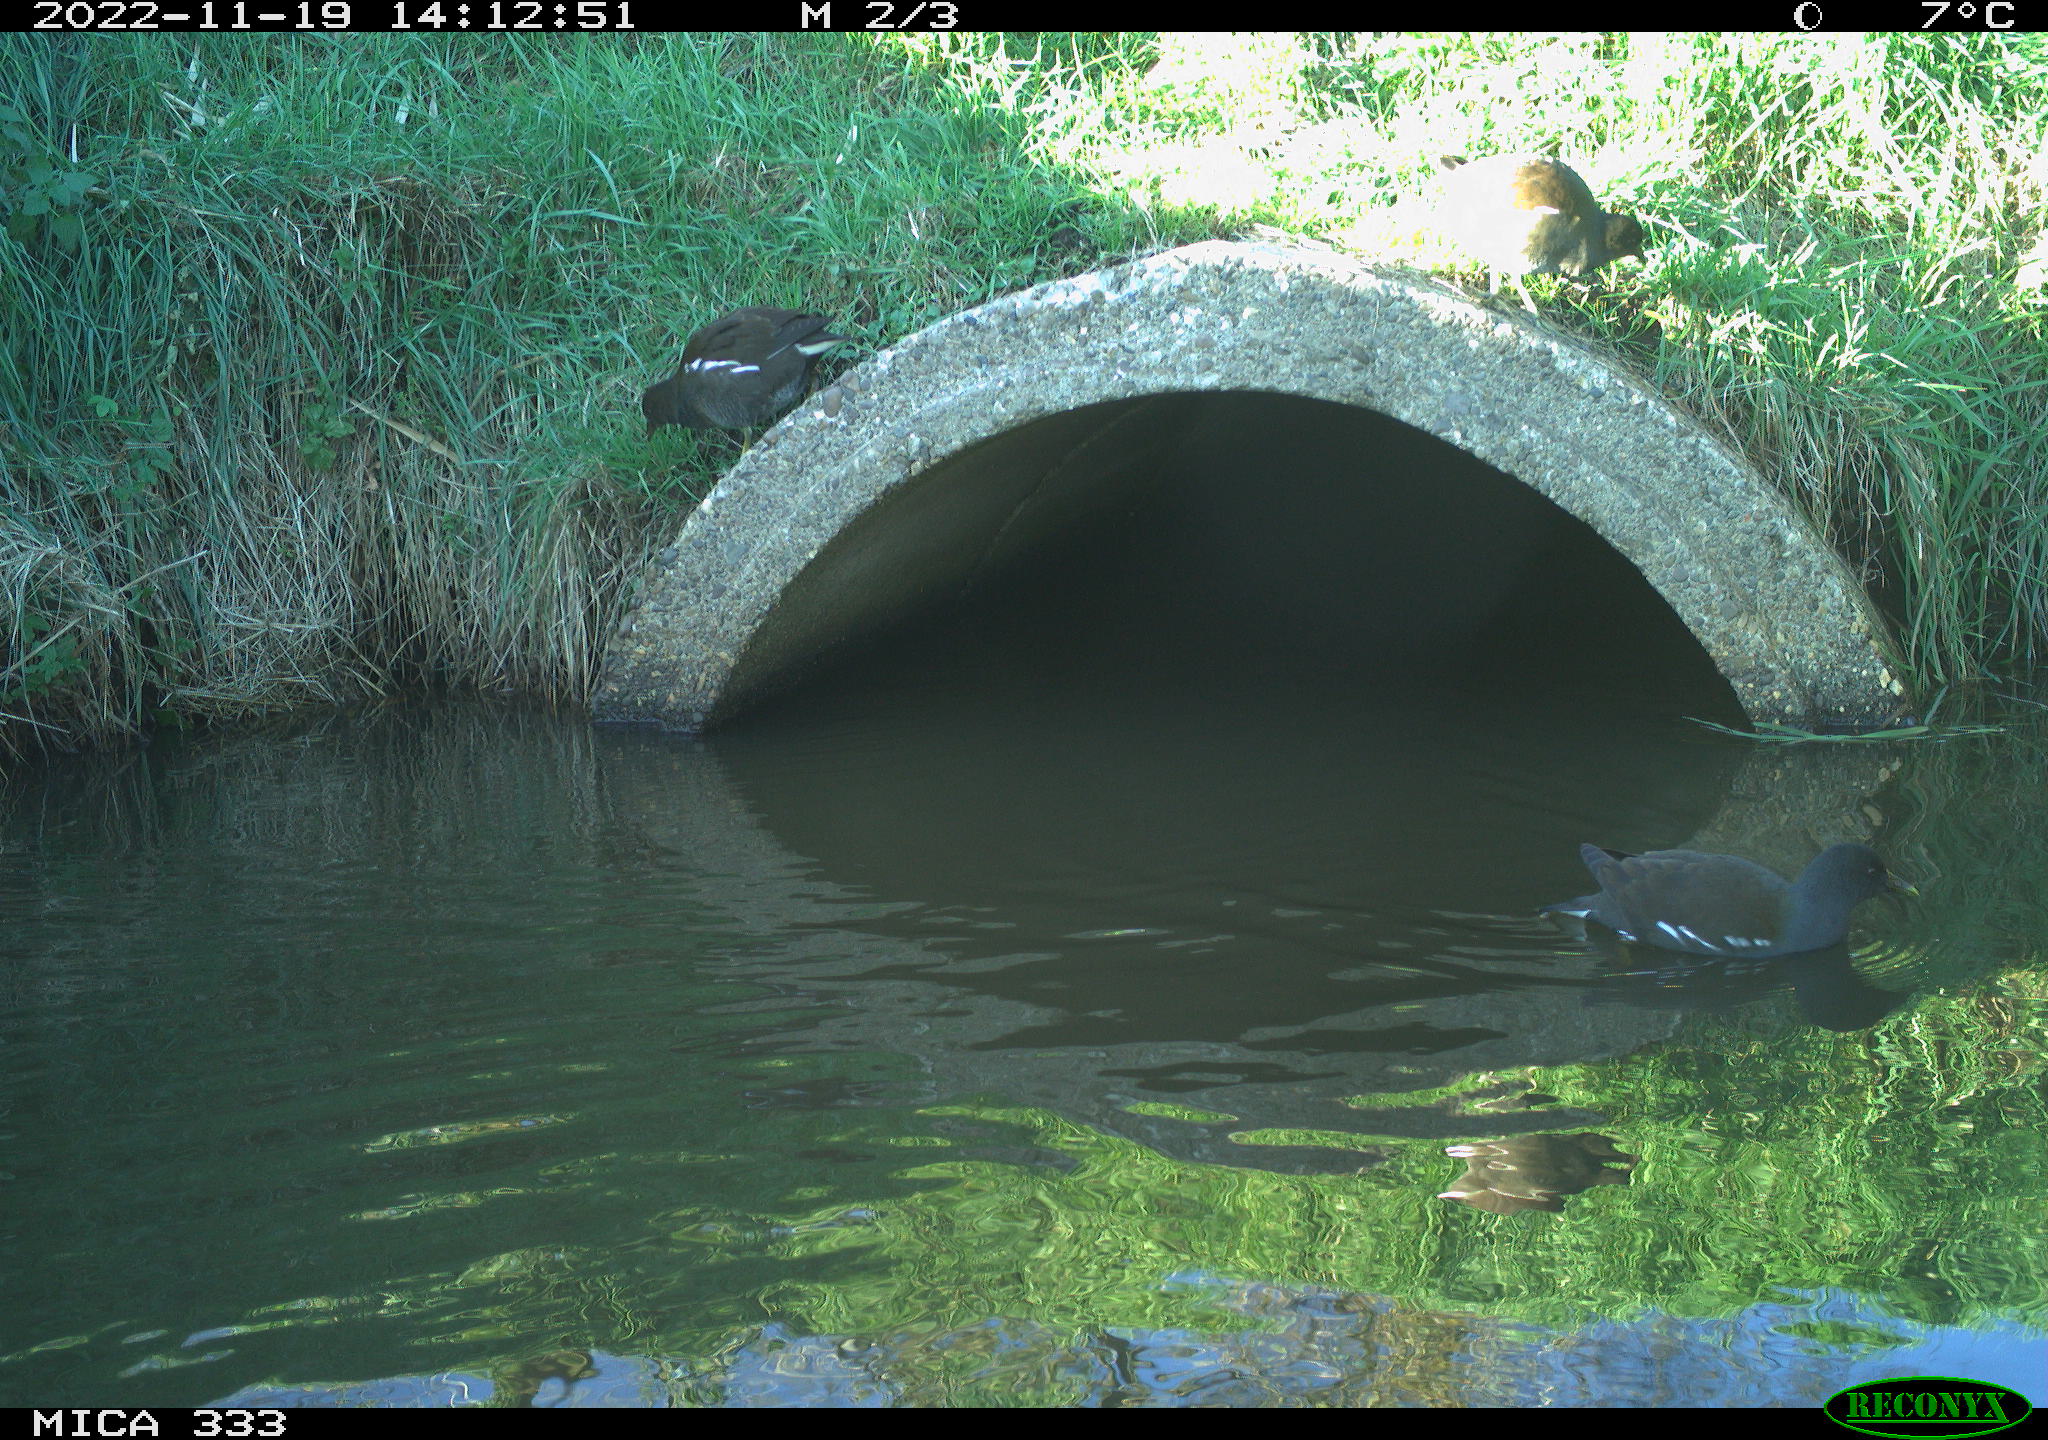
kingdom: Animalia
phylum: Chordata
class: Aves
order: Gruiformes
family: Rallidae
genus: Gallinula
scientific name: Gallinula chloropus
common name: Common moorhen
